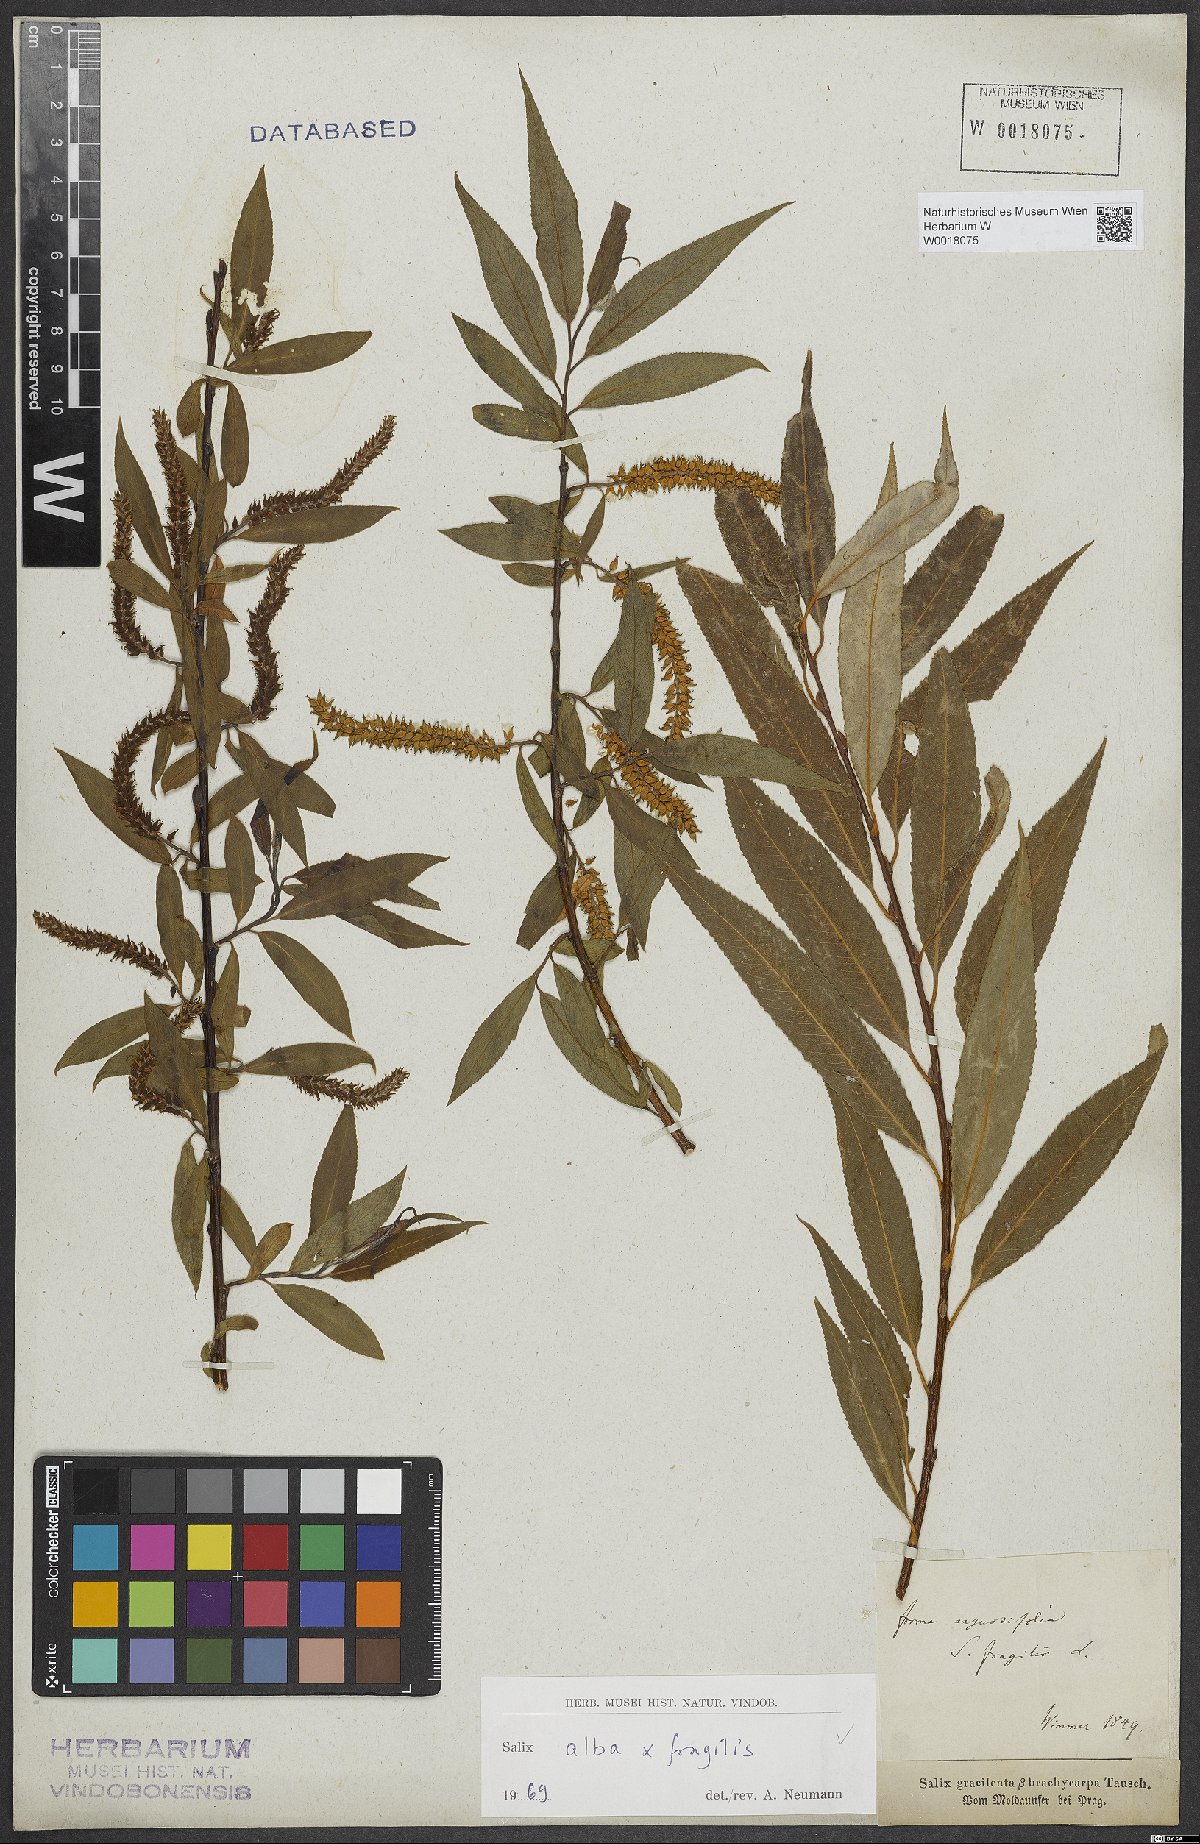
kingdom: Plantae
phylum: Tracheophyta
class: Magnoliopsida
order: Malpighiales
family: Salicaceae
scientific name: Salicaceae
